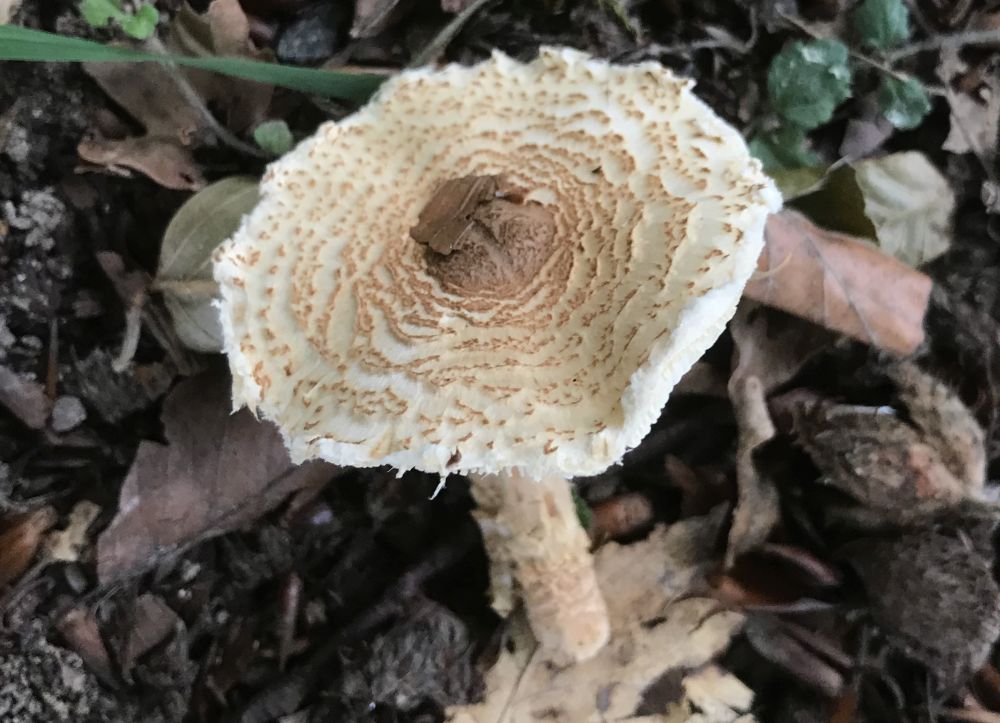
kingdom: Fungi
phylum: Basidiomycota
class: Agaricomycetes
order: Agaricales
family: Agaricaceae
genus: Lepiota
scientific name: Lepiota magnispora
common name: gulfnugget parasolhat
